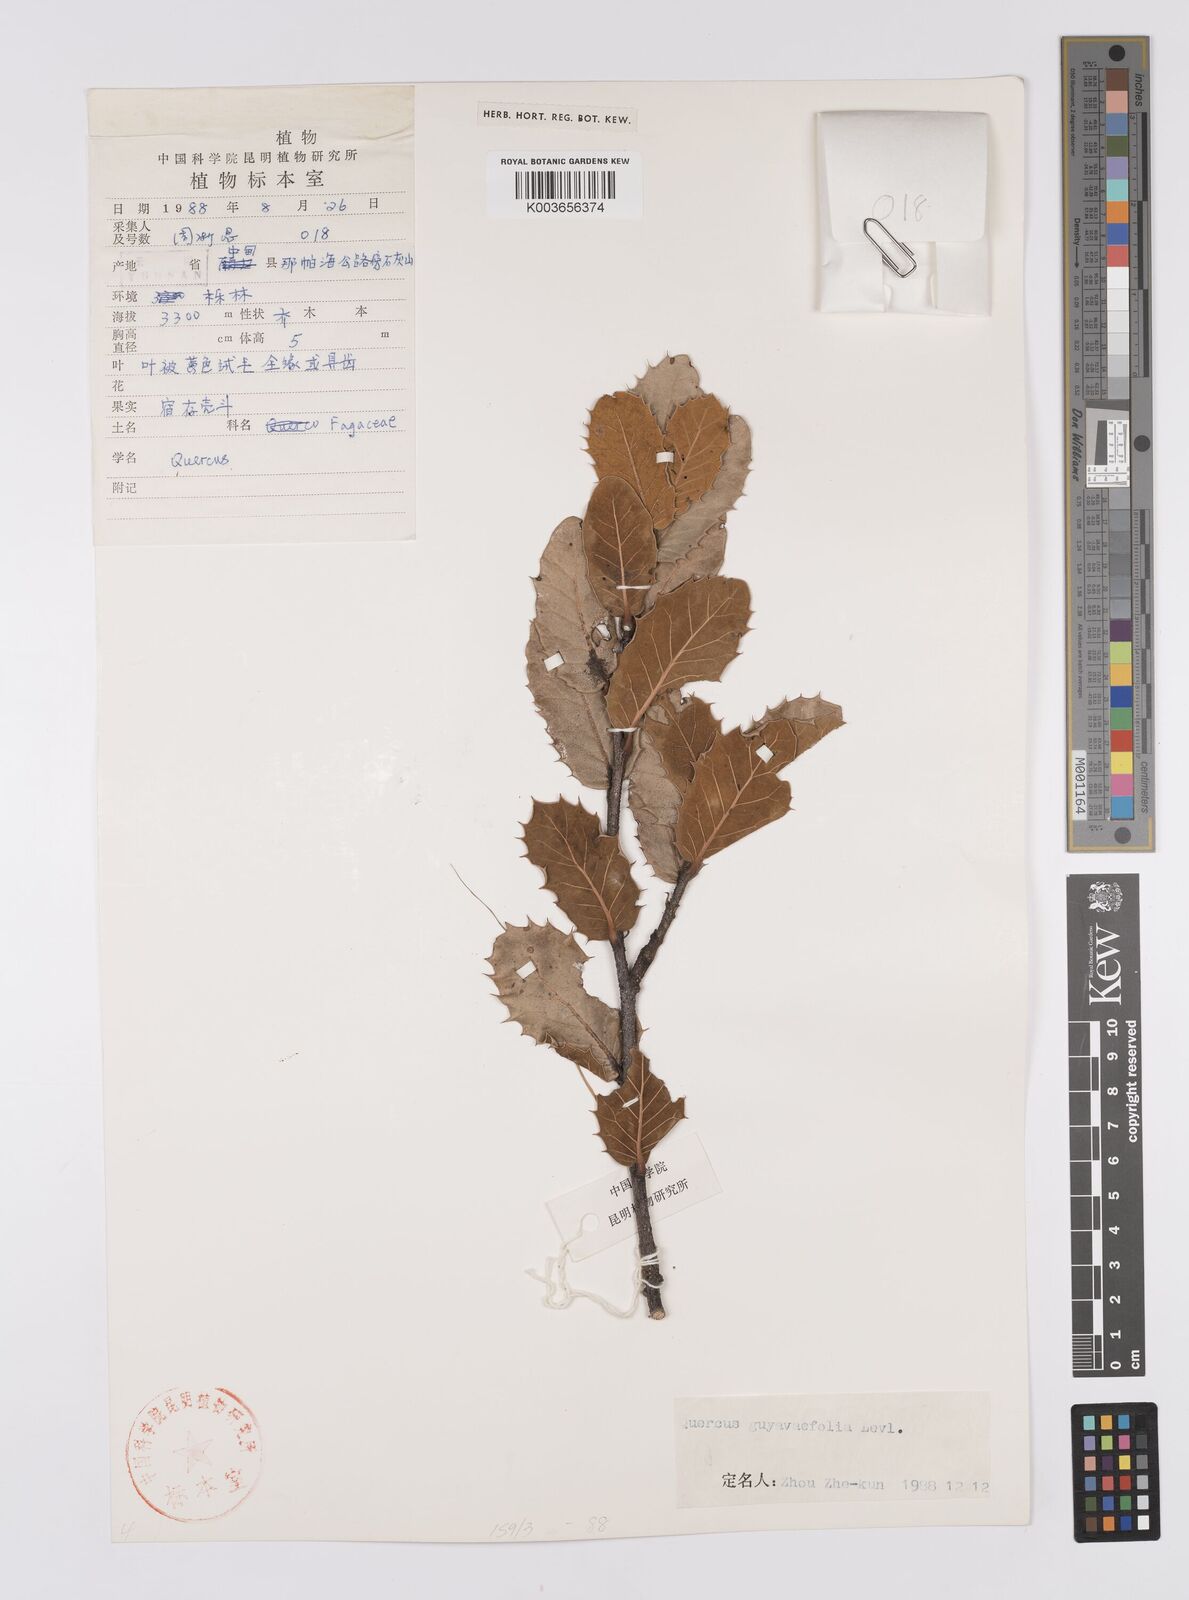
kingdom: Plantae
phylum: Tracheophyta
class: Magnoliopsida
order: Fagales
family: Fagaceae
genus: Quercus
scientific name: Quercus guyavifolia
